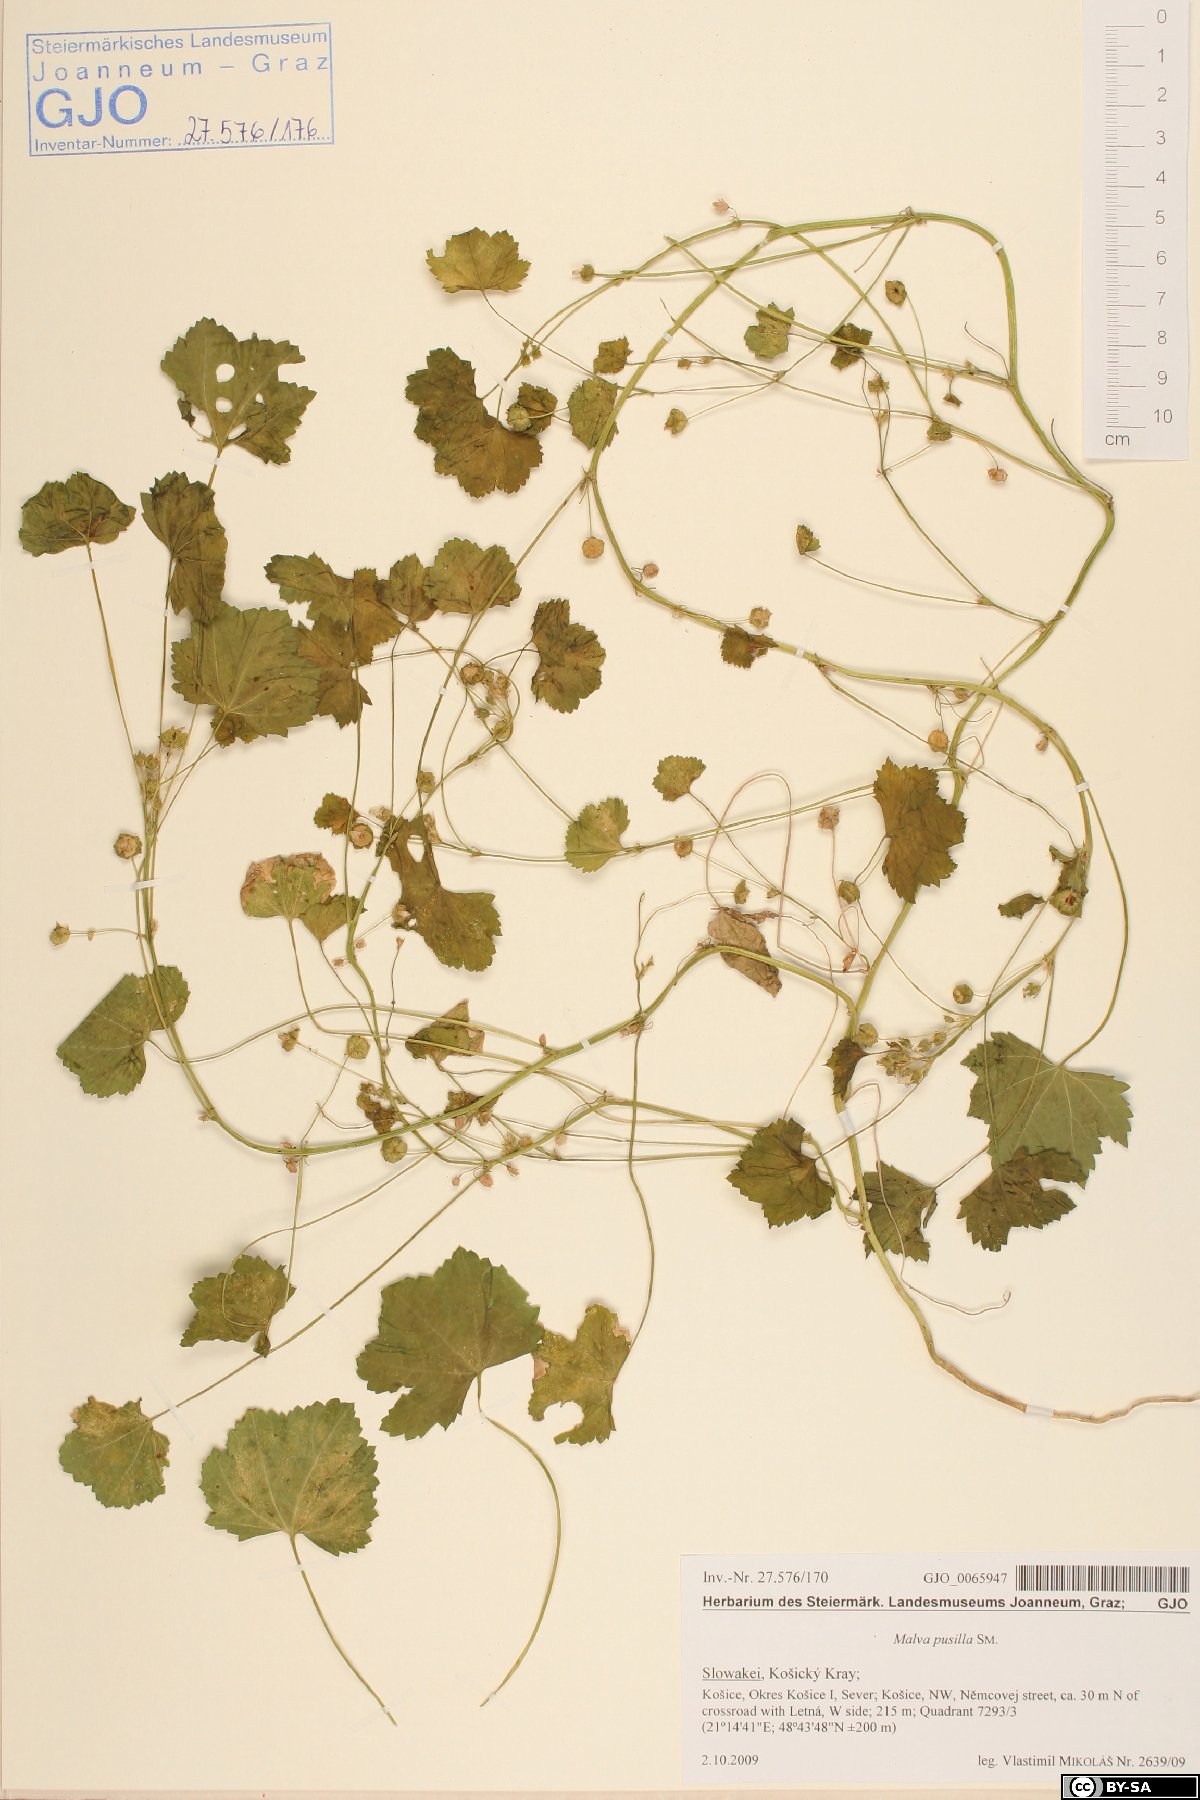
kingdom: Plantae
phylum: Tracheophyta
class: Magnoliopsida
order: Malvales
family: Malvaceae
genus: Malva
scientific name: Malva pusilla
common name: Small mallow
